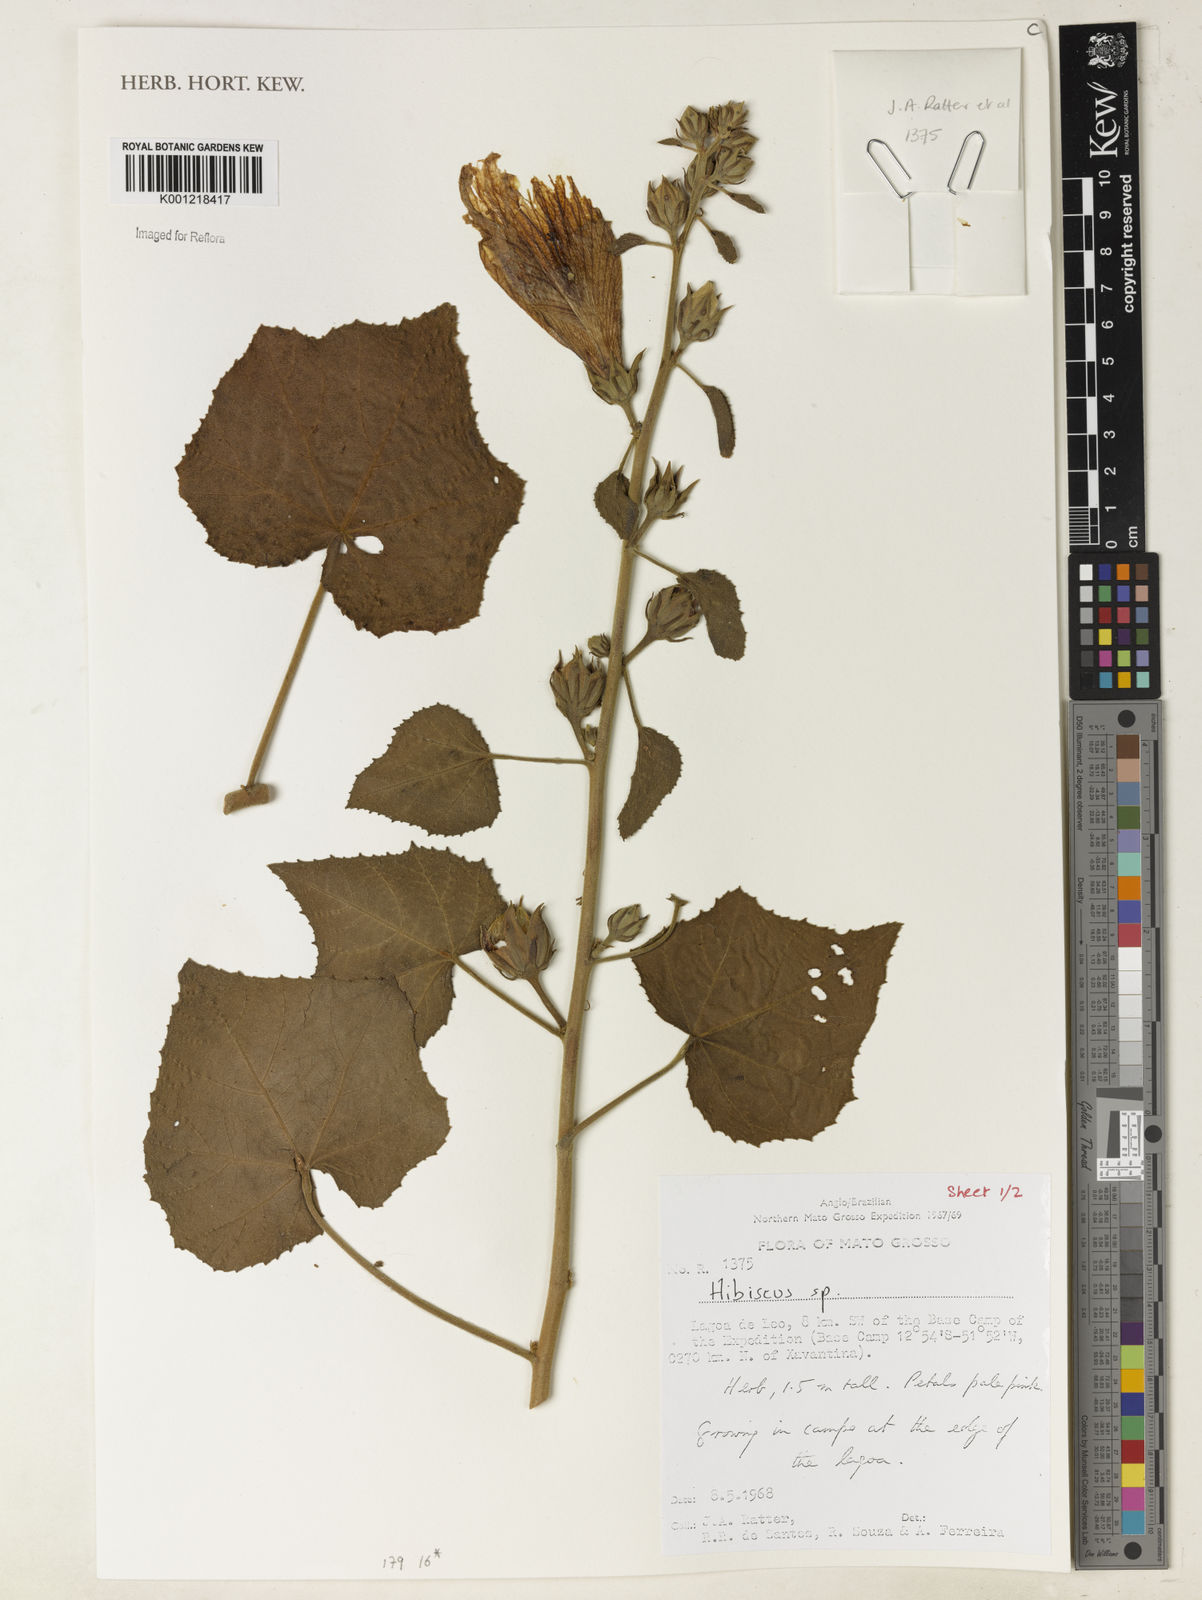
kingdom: Plantae
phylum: Tracheophyta
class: Magnoliopsida
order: Malvales
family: Malvaceae
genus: Hibiscus
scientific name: Hibiscus
